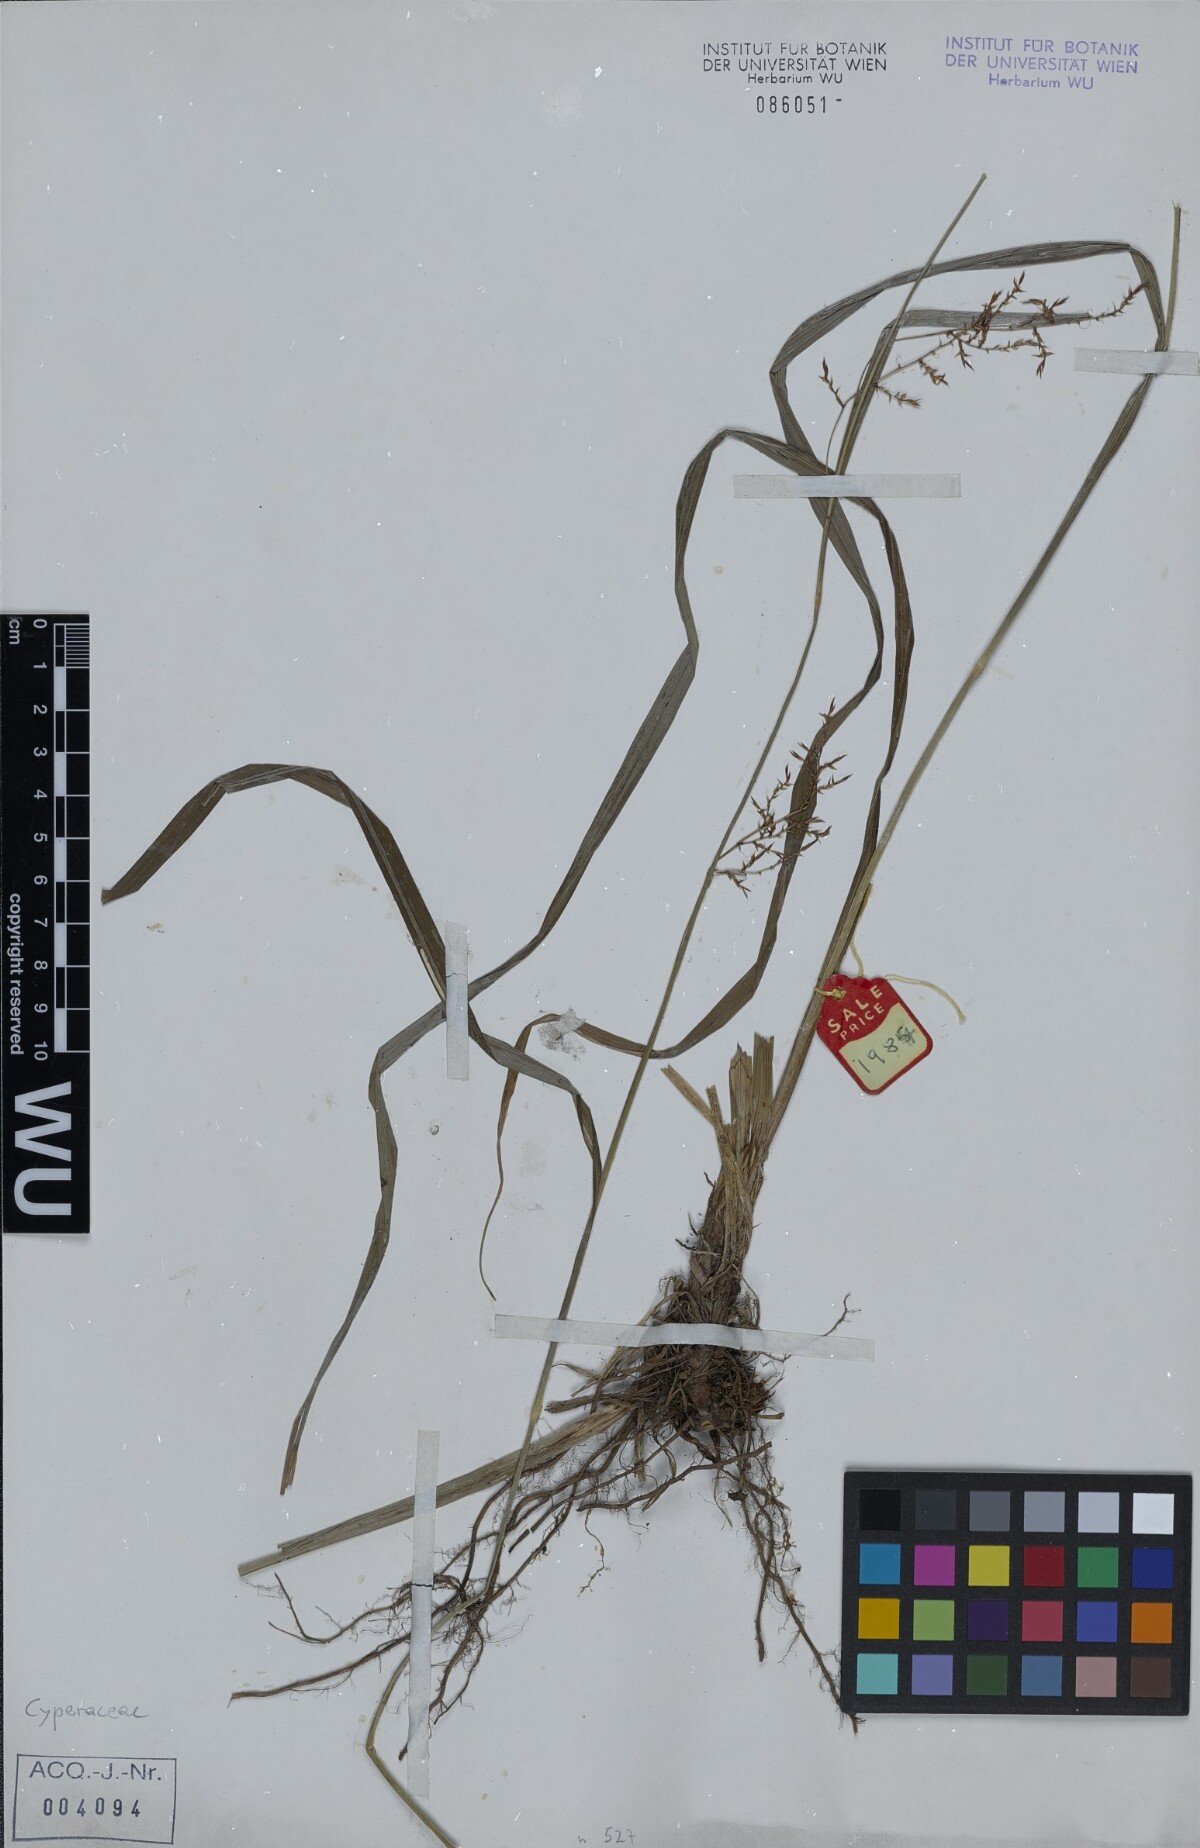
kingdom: Plantae
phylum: Tracheophyta
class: Liliopsida
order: Poales
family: Cyperaceae
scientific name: Cyperaceae
